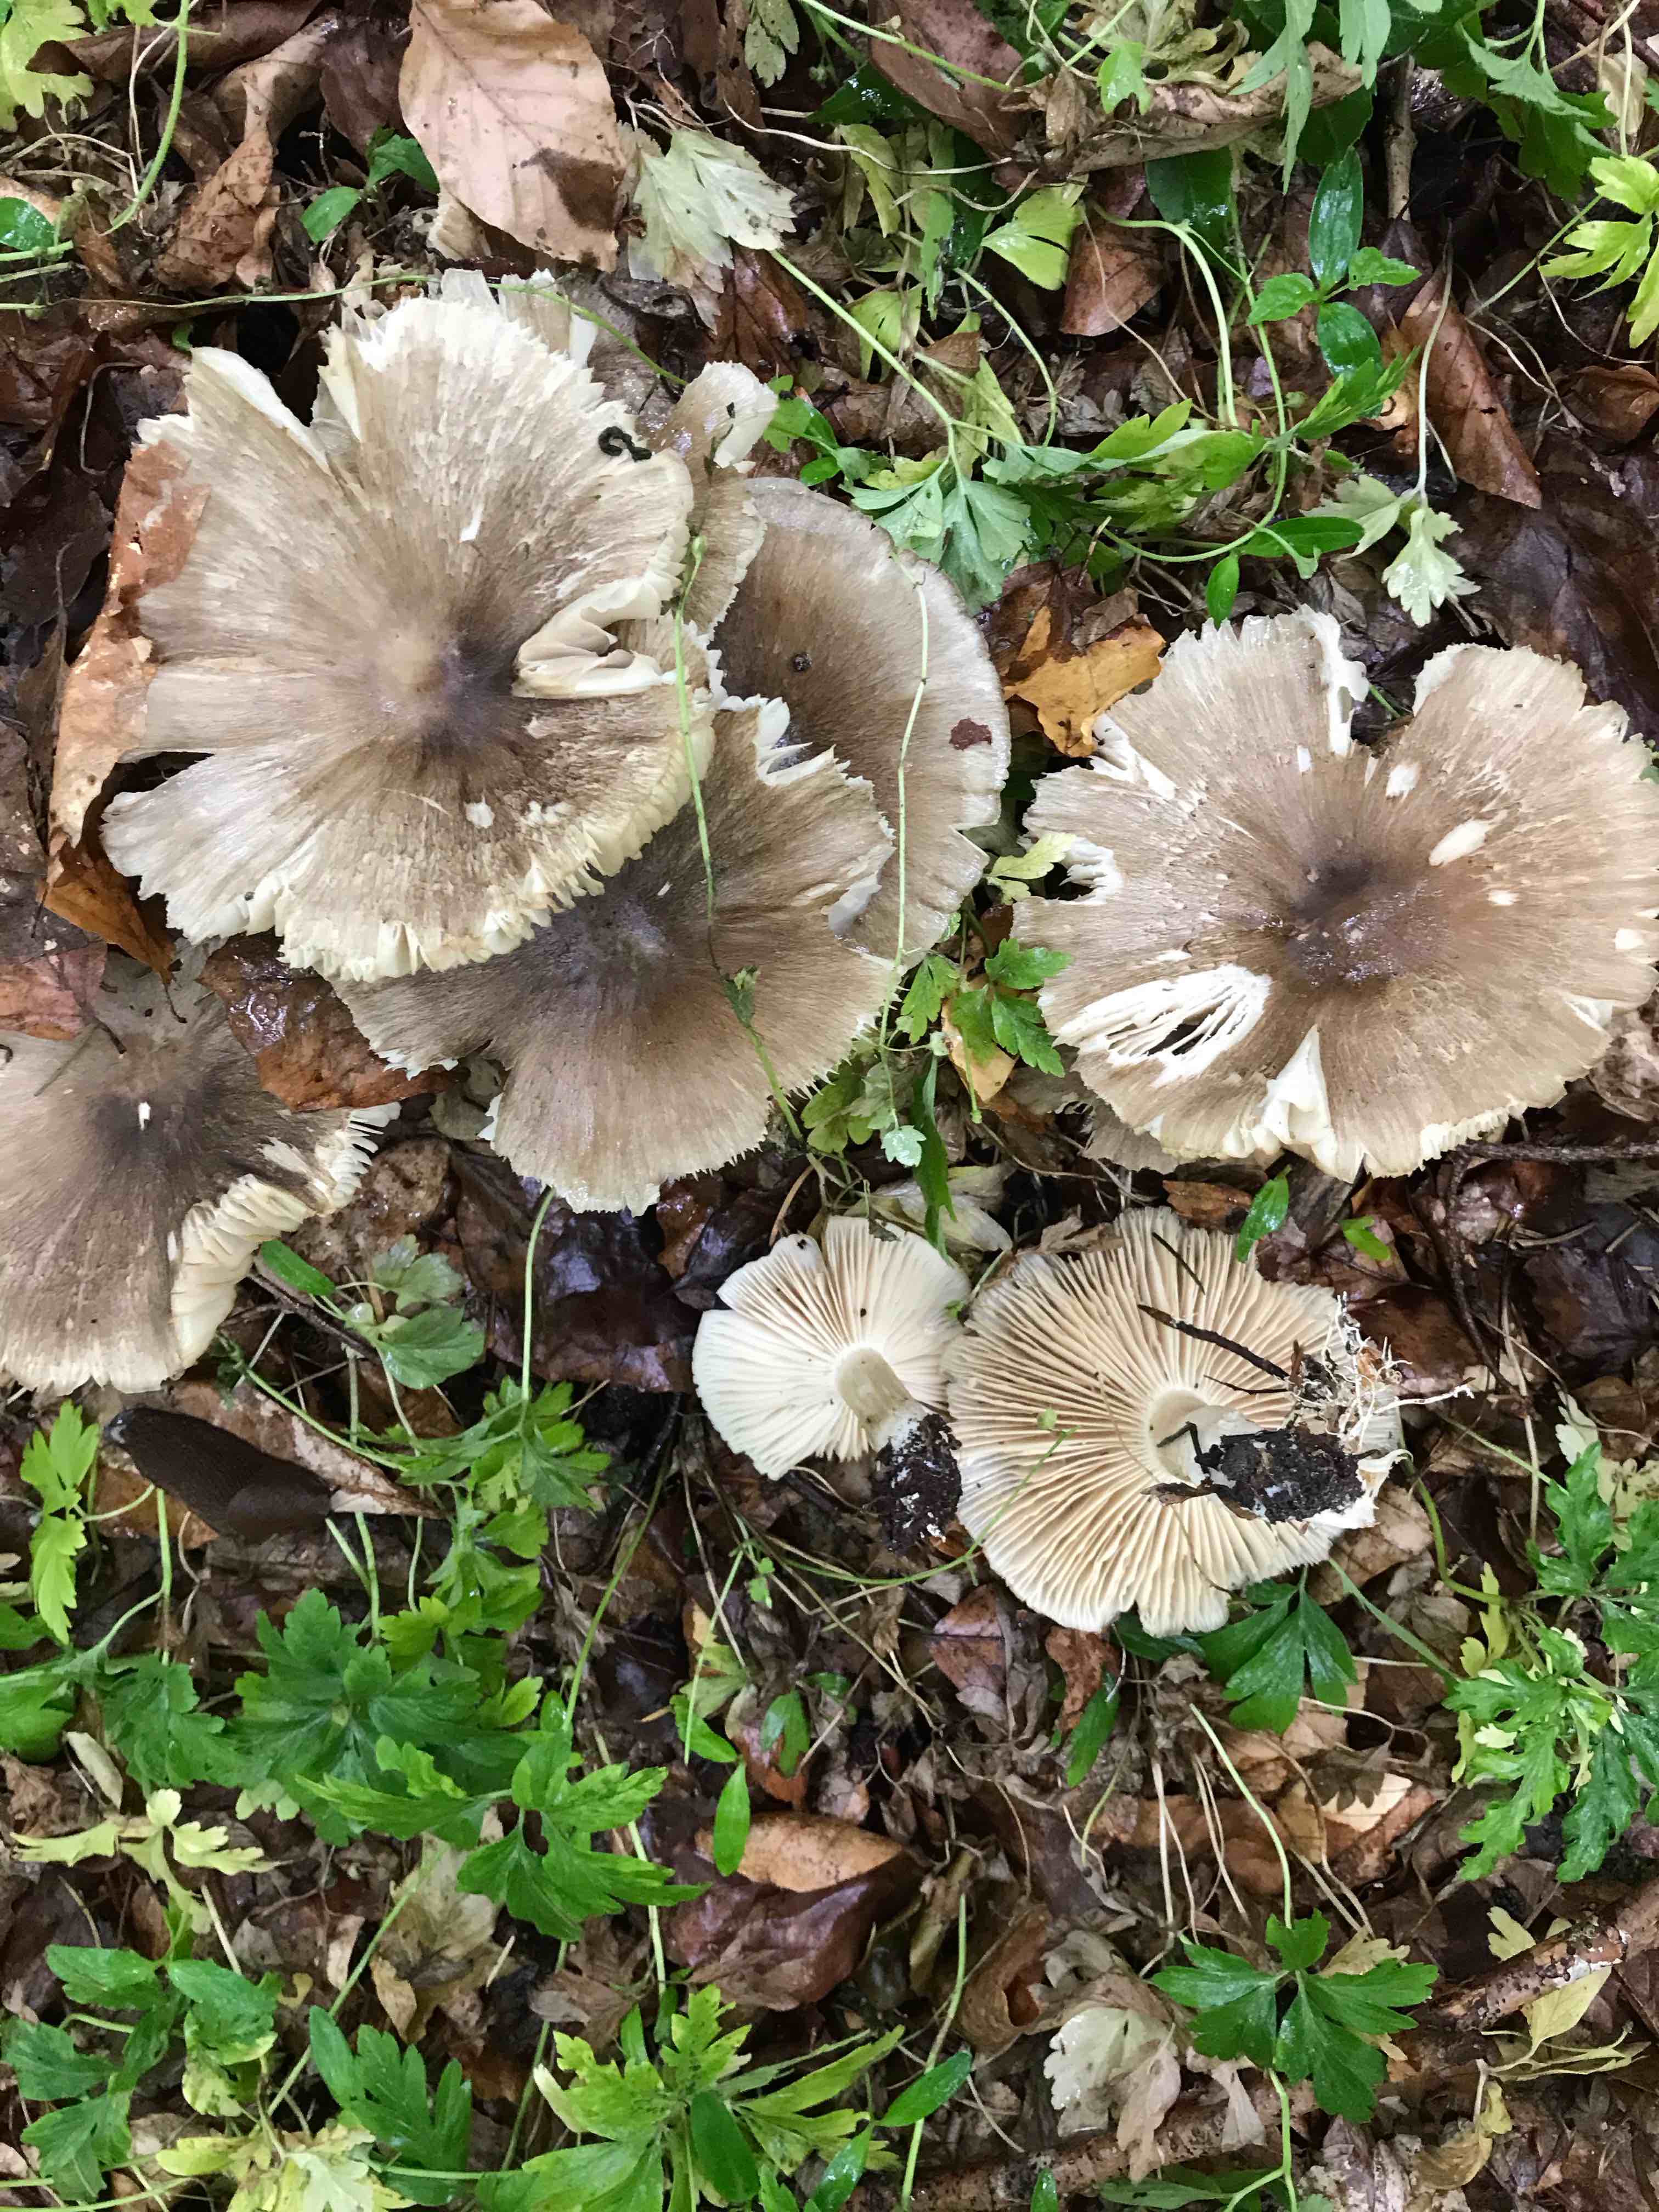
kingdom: Fungi
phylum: Basidiomycota
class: Agaricomycetes
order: Agaricales
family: Tricholomataceae
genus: Megacollybia
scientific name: Megacollybia platyphylla
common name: bredbladet væbnerhat
